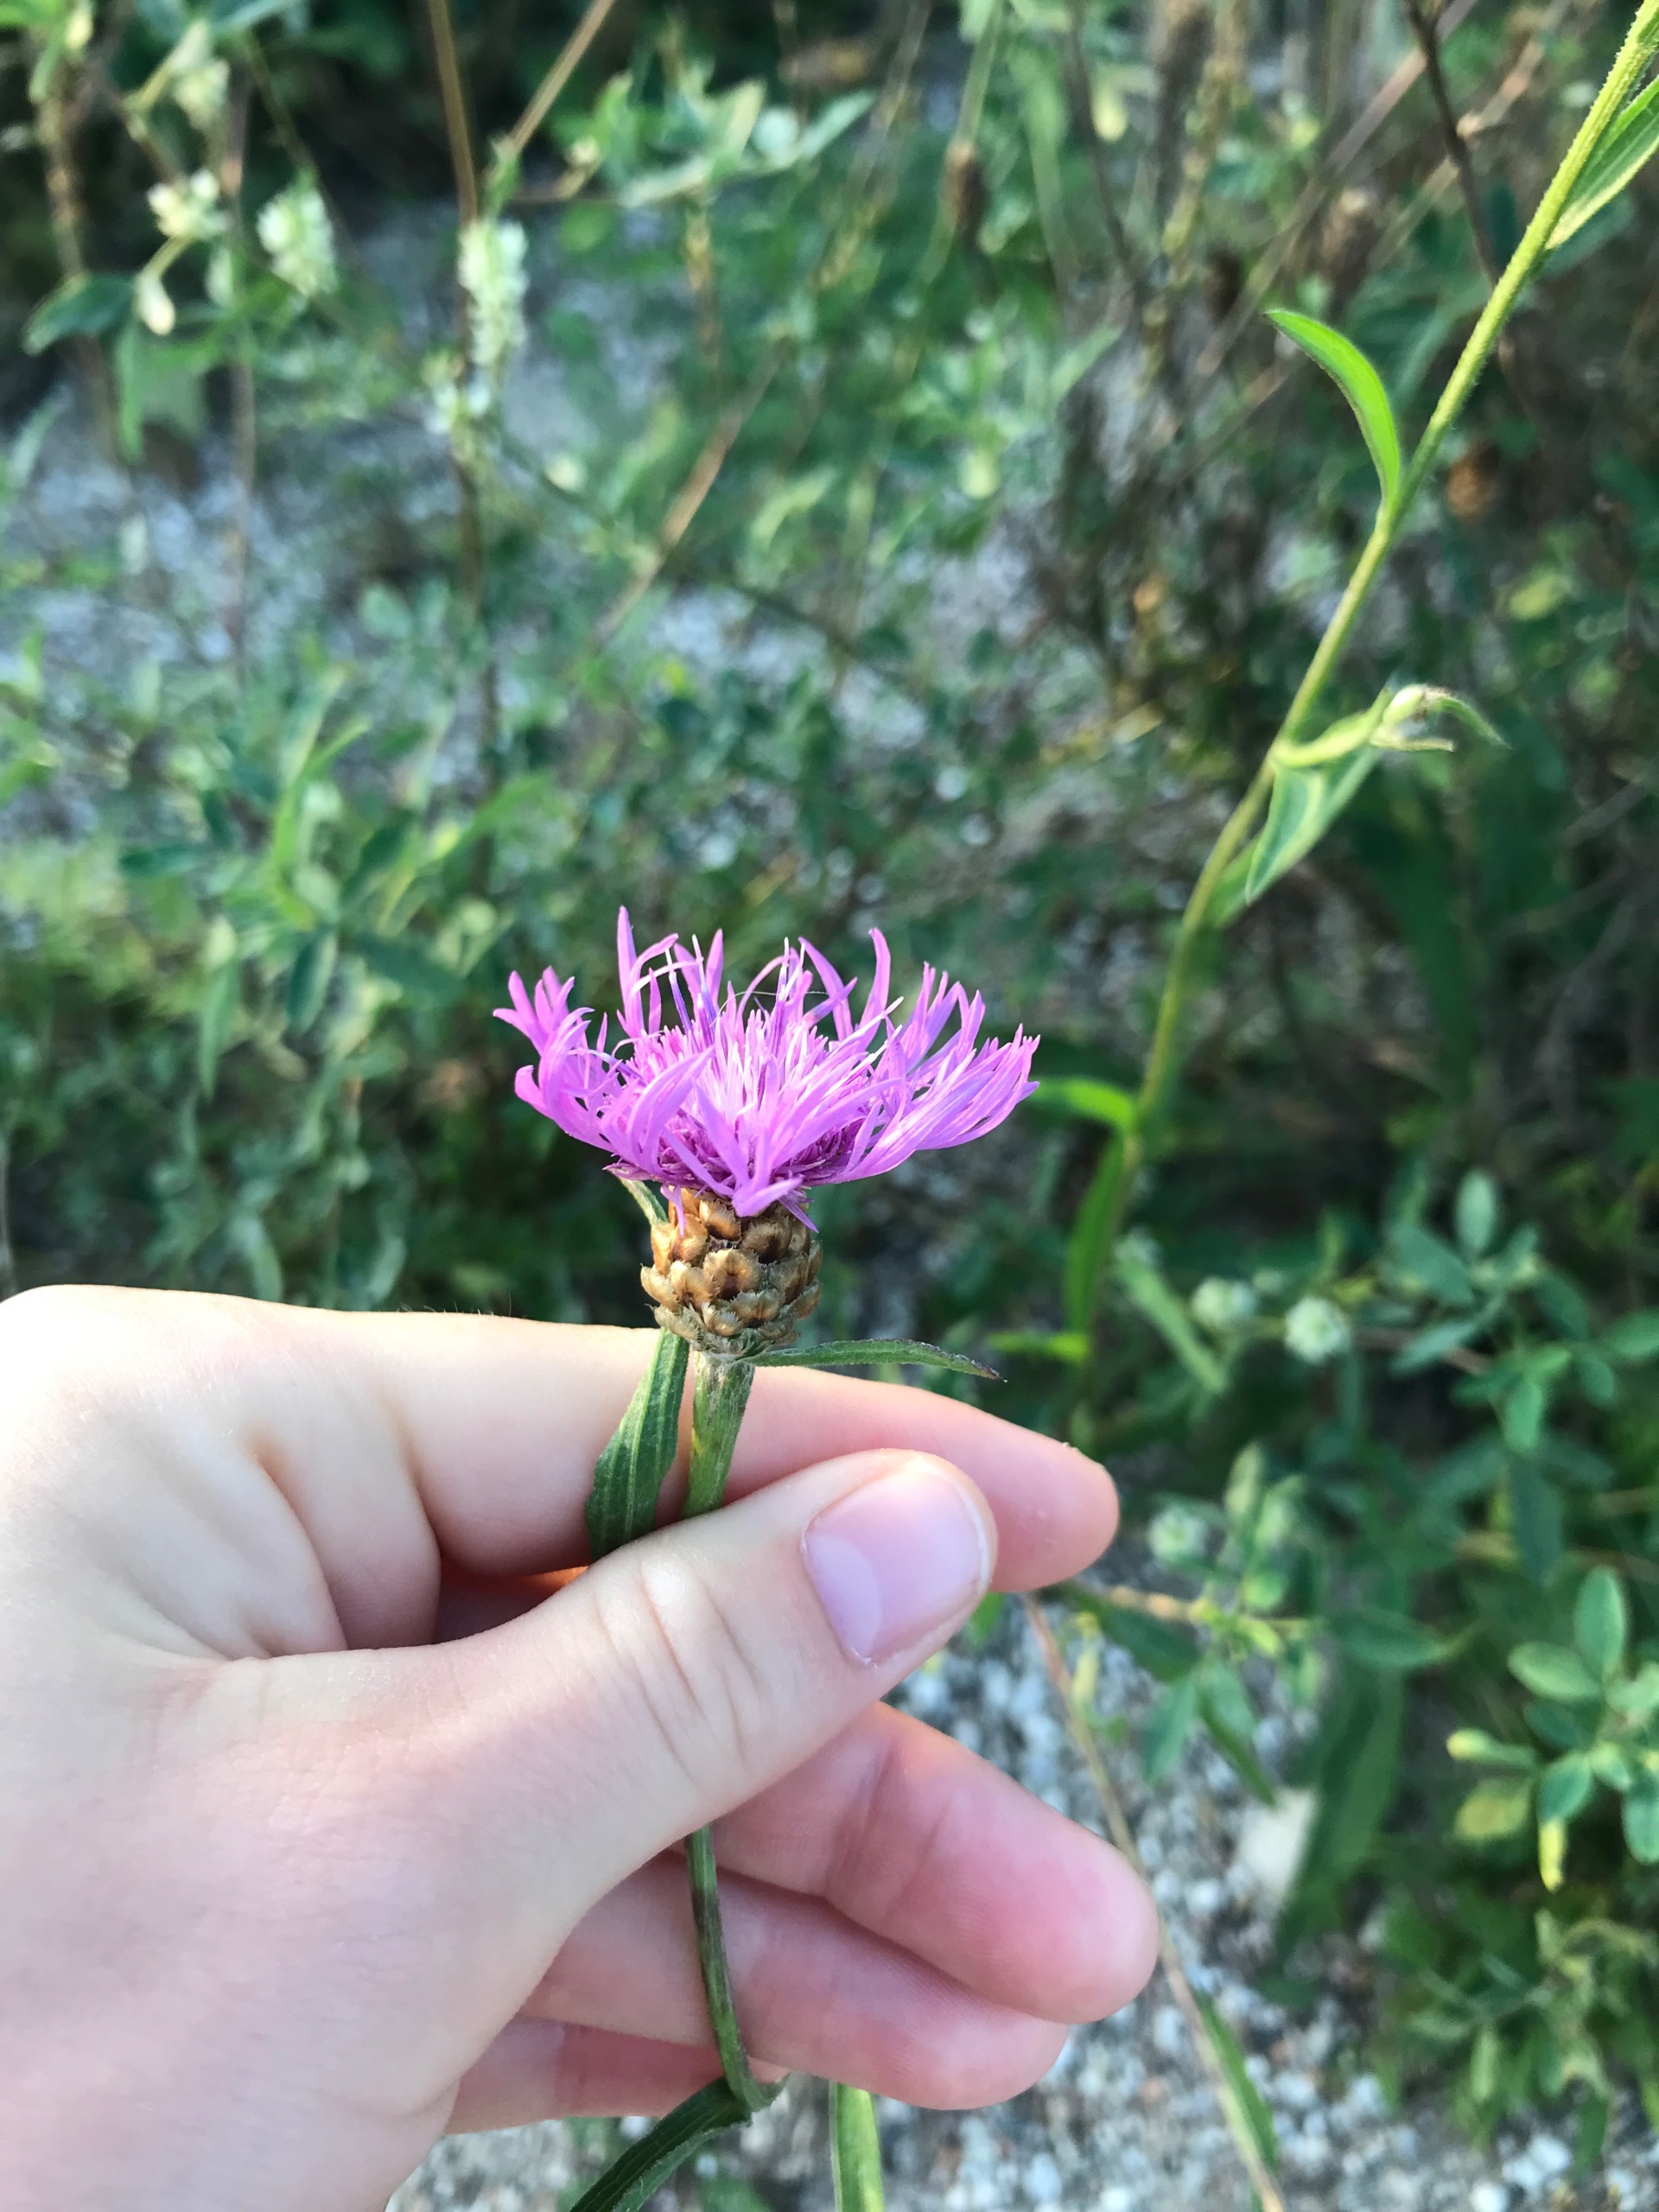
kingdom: Plantae
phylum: Tracheophyta
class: Magnoliopsida
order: Asterales
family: Asteraceae
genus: Centaurea
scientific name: Centaurea jacea
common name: Almindelig knopurt
